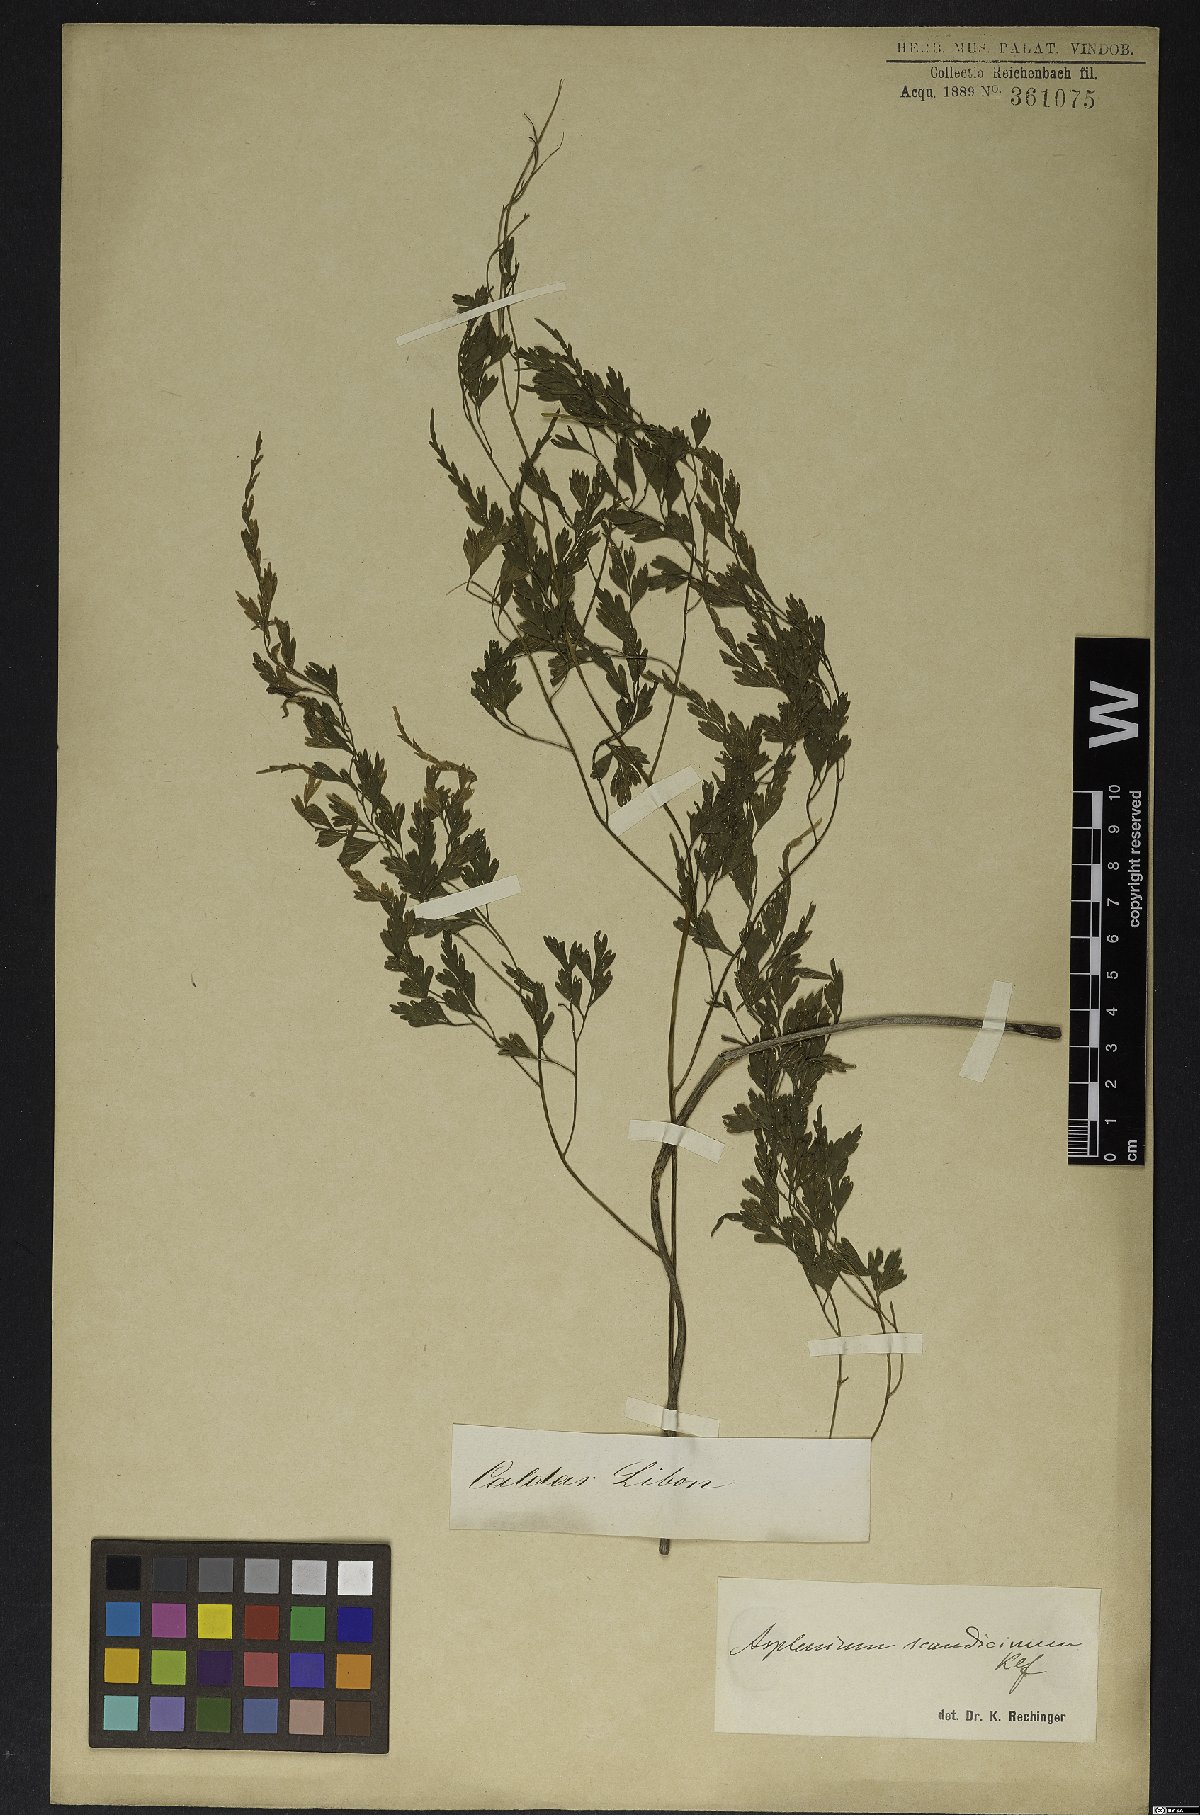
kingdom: Plantae
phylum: Tracheophyta
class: Polypodiopsida
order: Polypodiales
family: Aspleniaceae
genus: Asplenium
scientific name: Asplenium scandicinum
